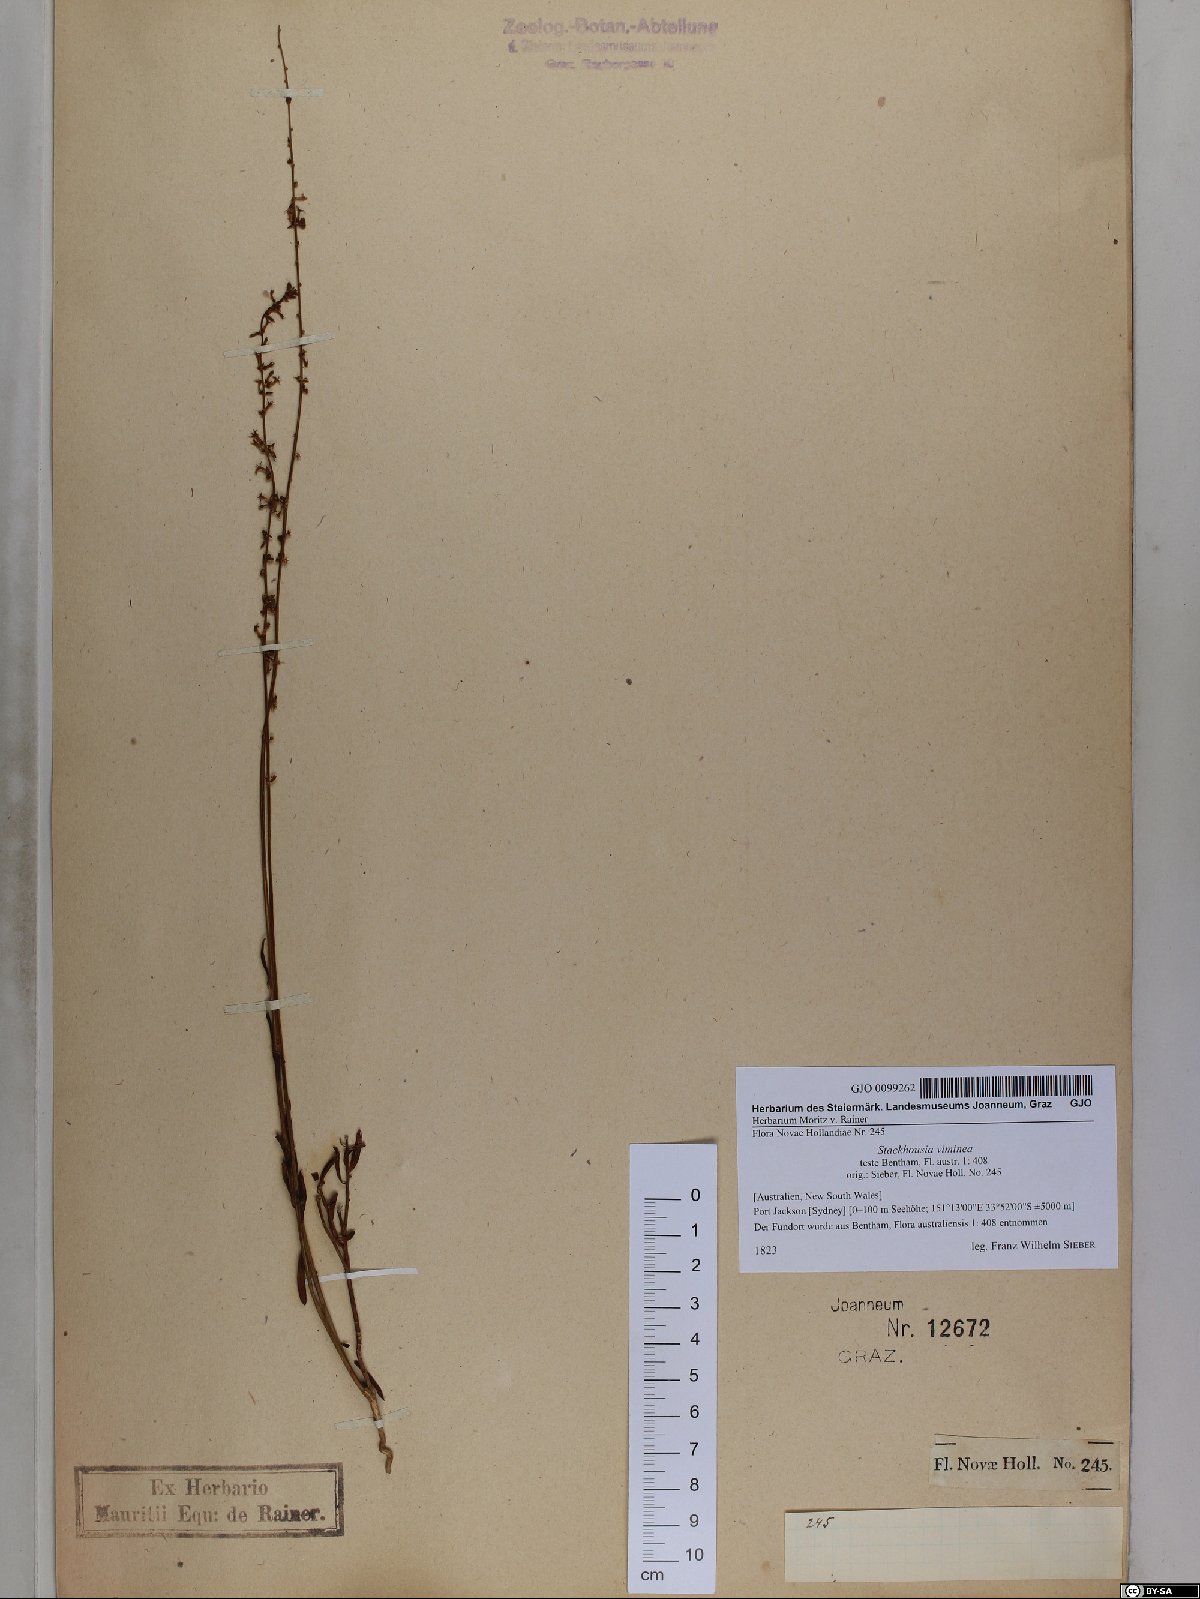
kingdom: Plantae
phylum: Tracheophyta
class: Magnoliopsida
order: Celastrales
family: Celastraceae
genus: Stackhousia
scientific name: Stackhousia viminea
